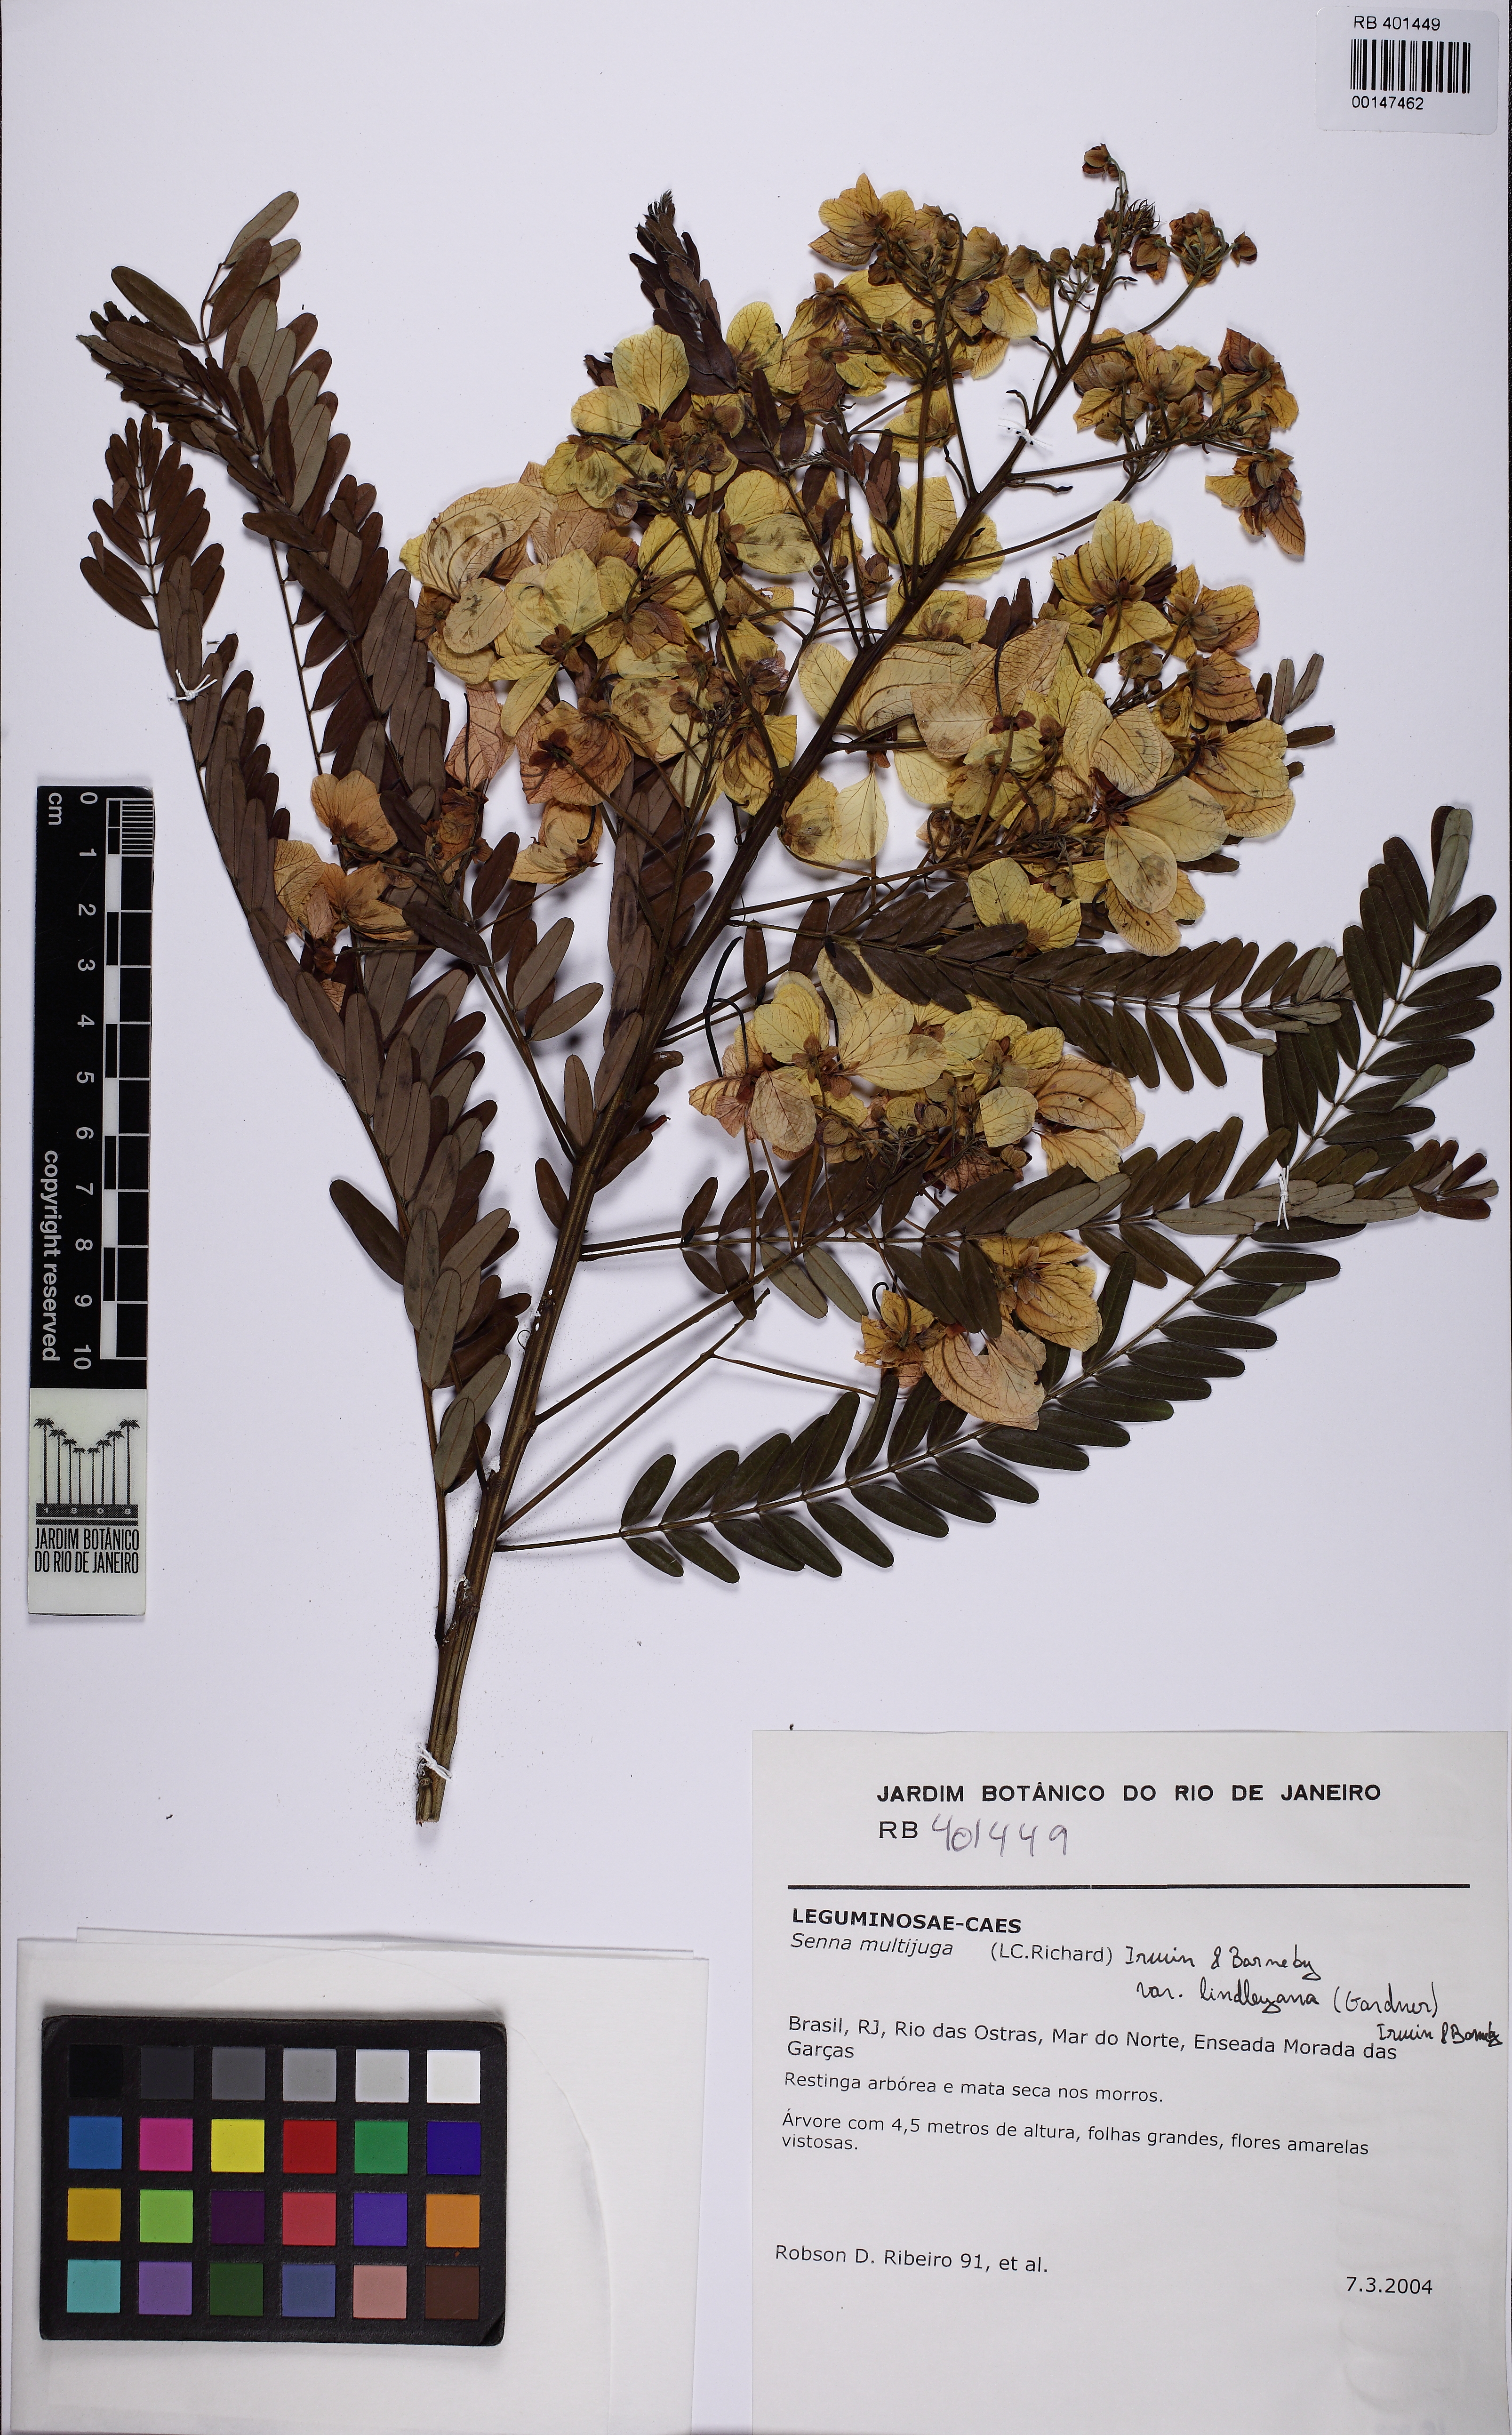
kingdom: Plantae
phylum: Tracheophyta
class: Magnoliopsida
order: Fabales
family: Fabaceae
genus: Senna
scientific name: Senna multijuga
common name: False sicklepod
